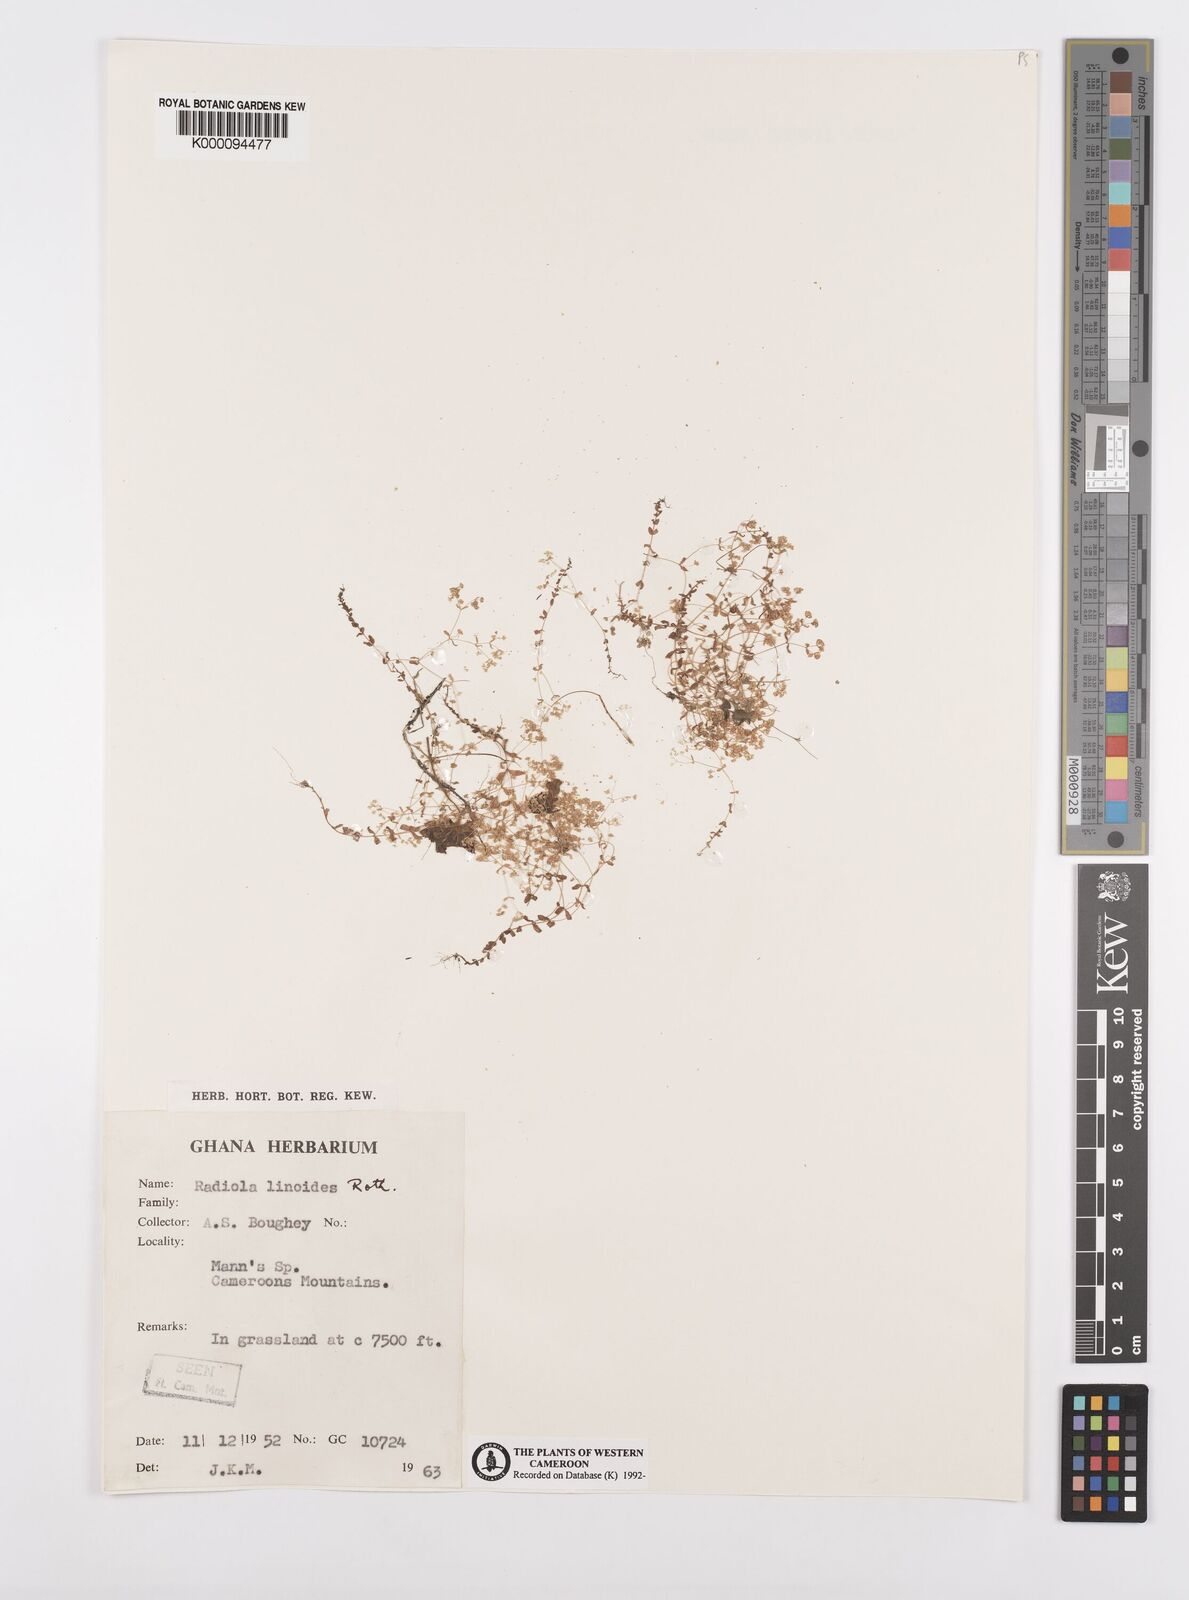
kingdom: Plantae
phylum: Tracheophyta
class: Magnoliopsida
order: Malpighiales
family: Linaceae
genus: Radiola
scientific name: Radiola linoides
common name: Allseed
